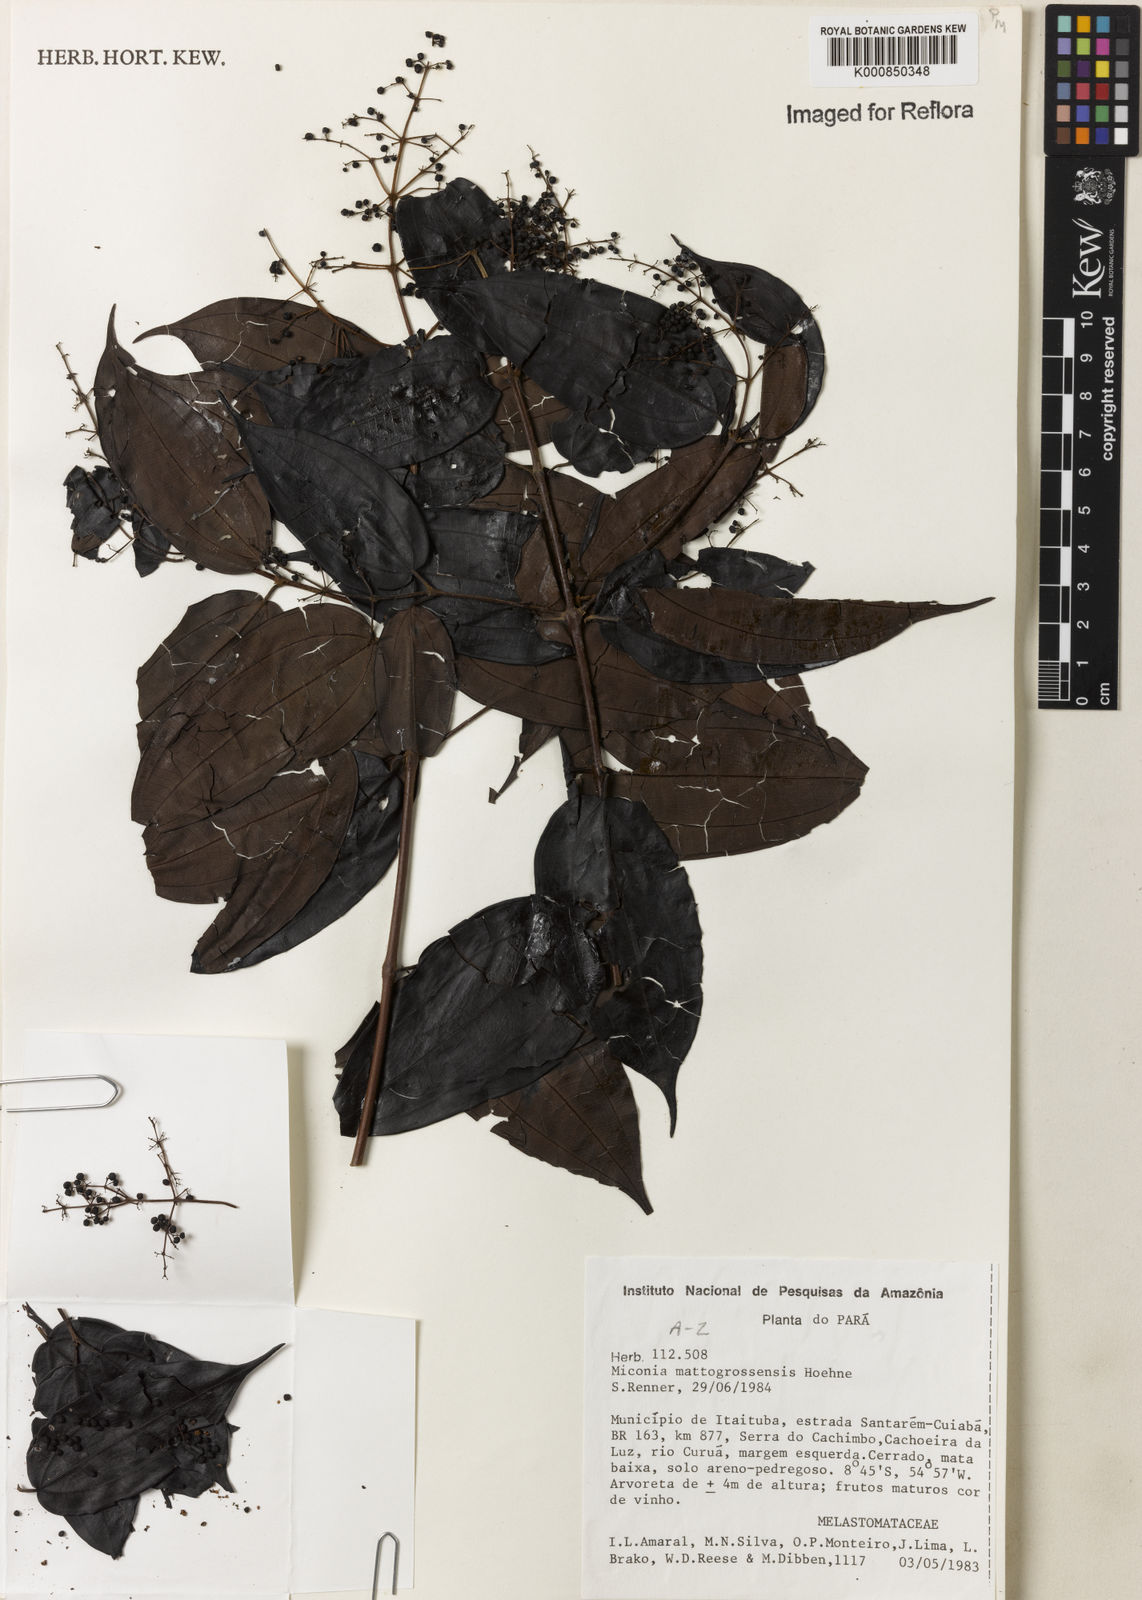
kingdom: Plantae
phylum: Tracheophyta
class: Magnoliopsida
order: Myrtales
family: Melastomataceae
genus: Miconia
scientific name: Miconia mattogrossensis
